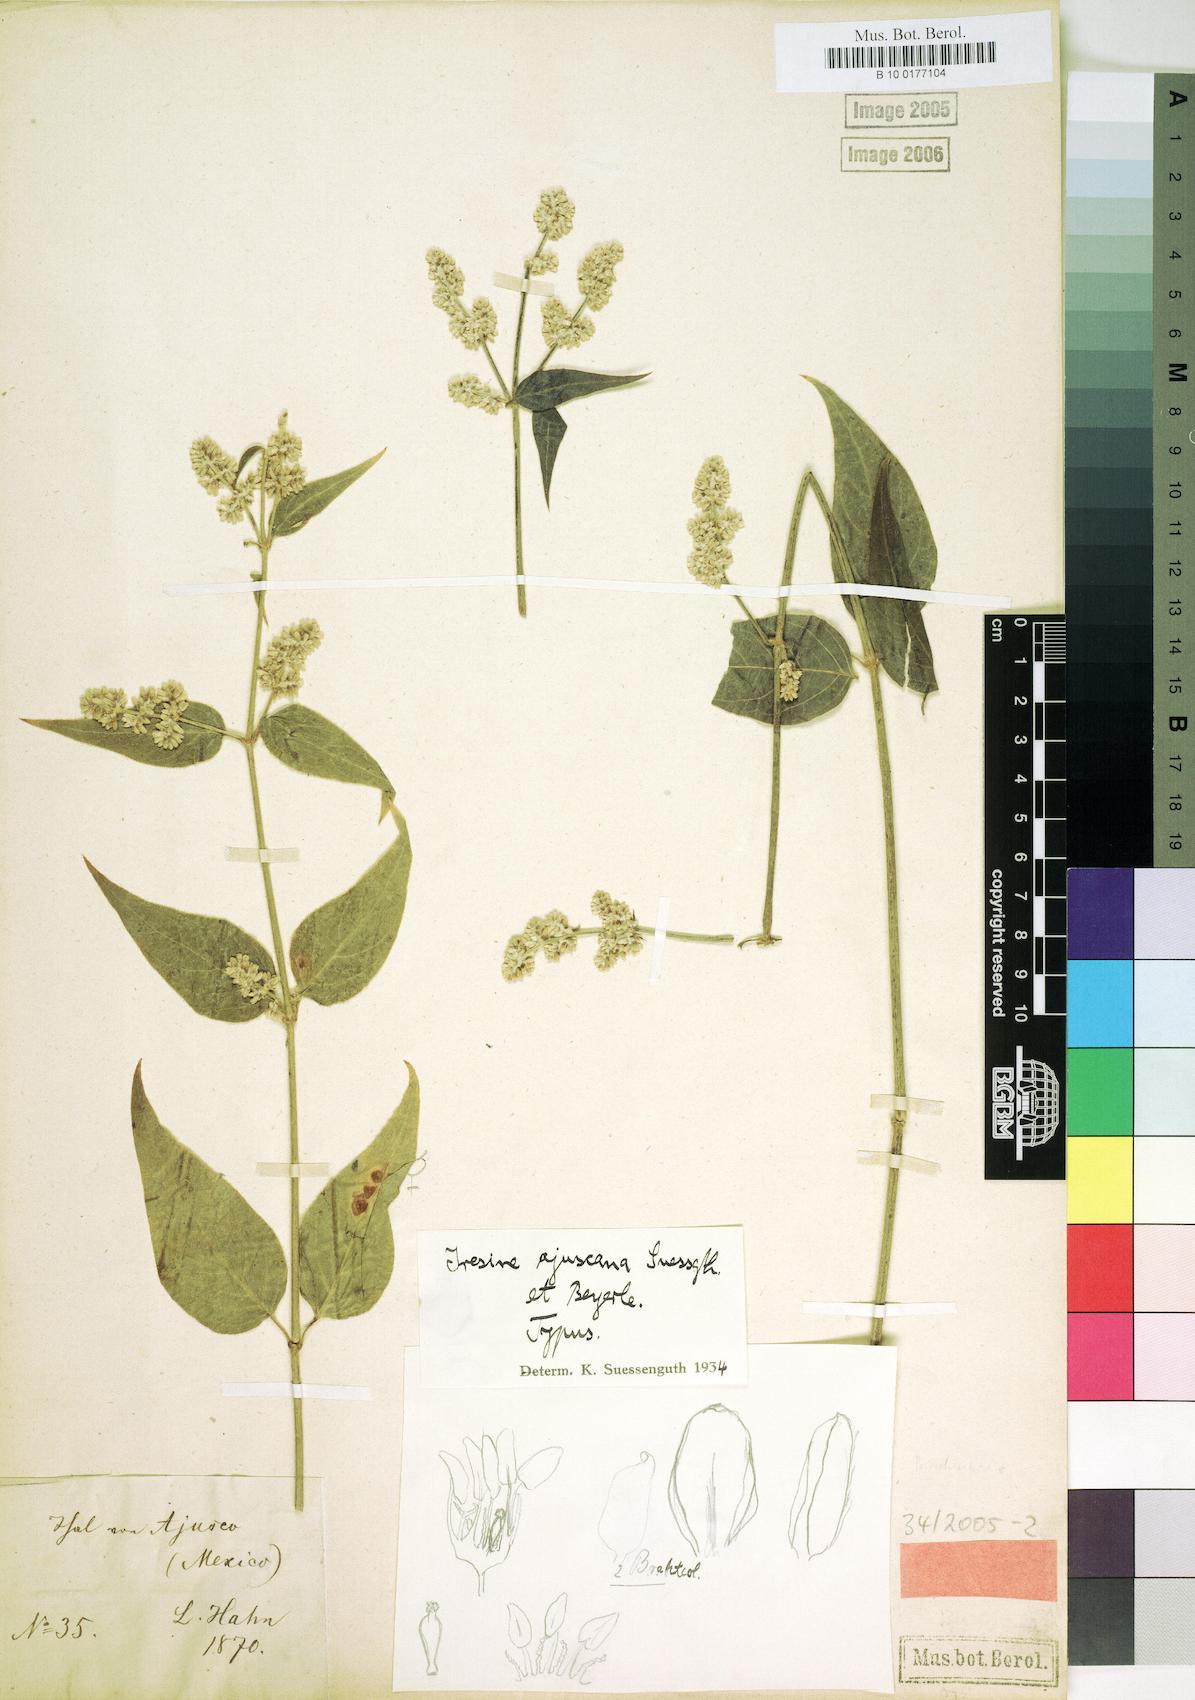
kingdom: Plantae
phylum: Tracheophyta
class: Magnoliopsida
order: Caryophyllales
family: Amaranthaceae
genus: Iresine
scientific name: Iresine ajuscana
